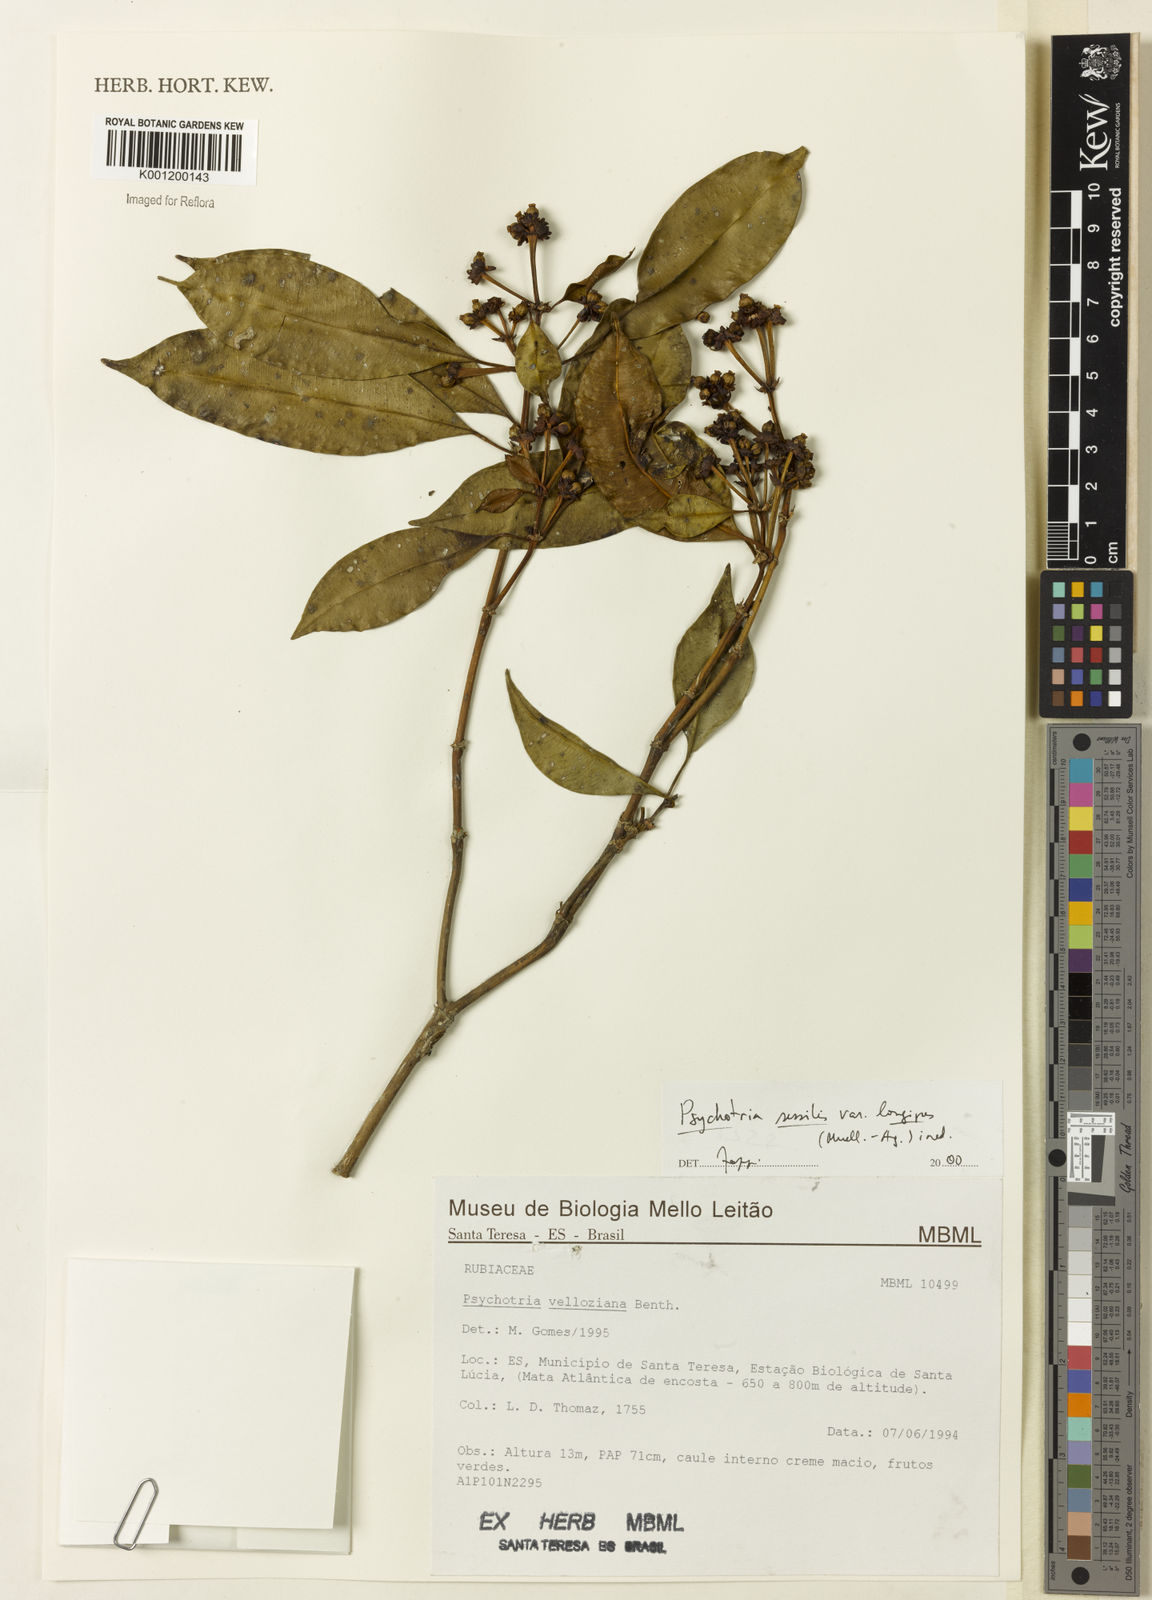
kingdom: Plantae
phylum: Tracheophyta
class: Magnoliopsida
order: Gentianales
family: Rubiaceae
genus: Rudgea
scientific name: Rudgea sessilis
